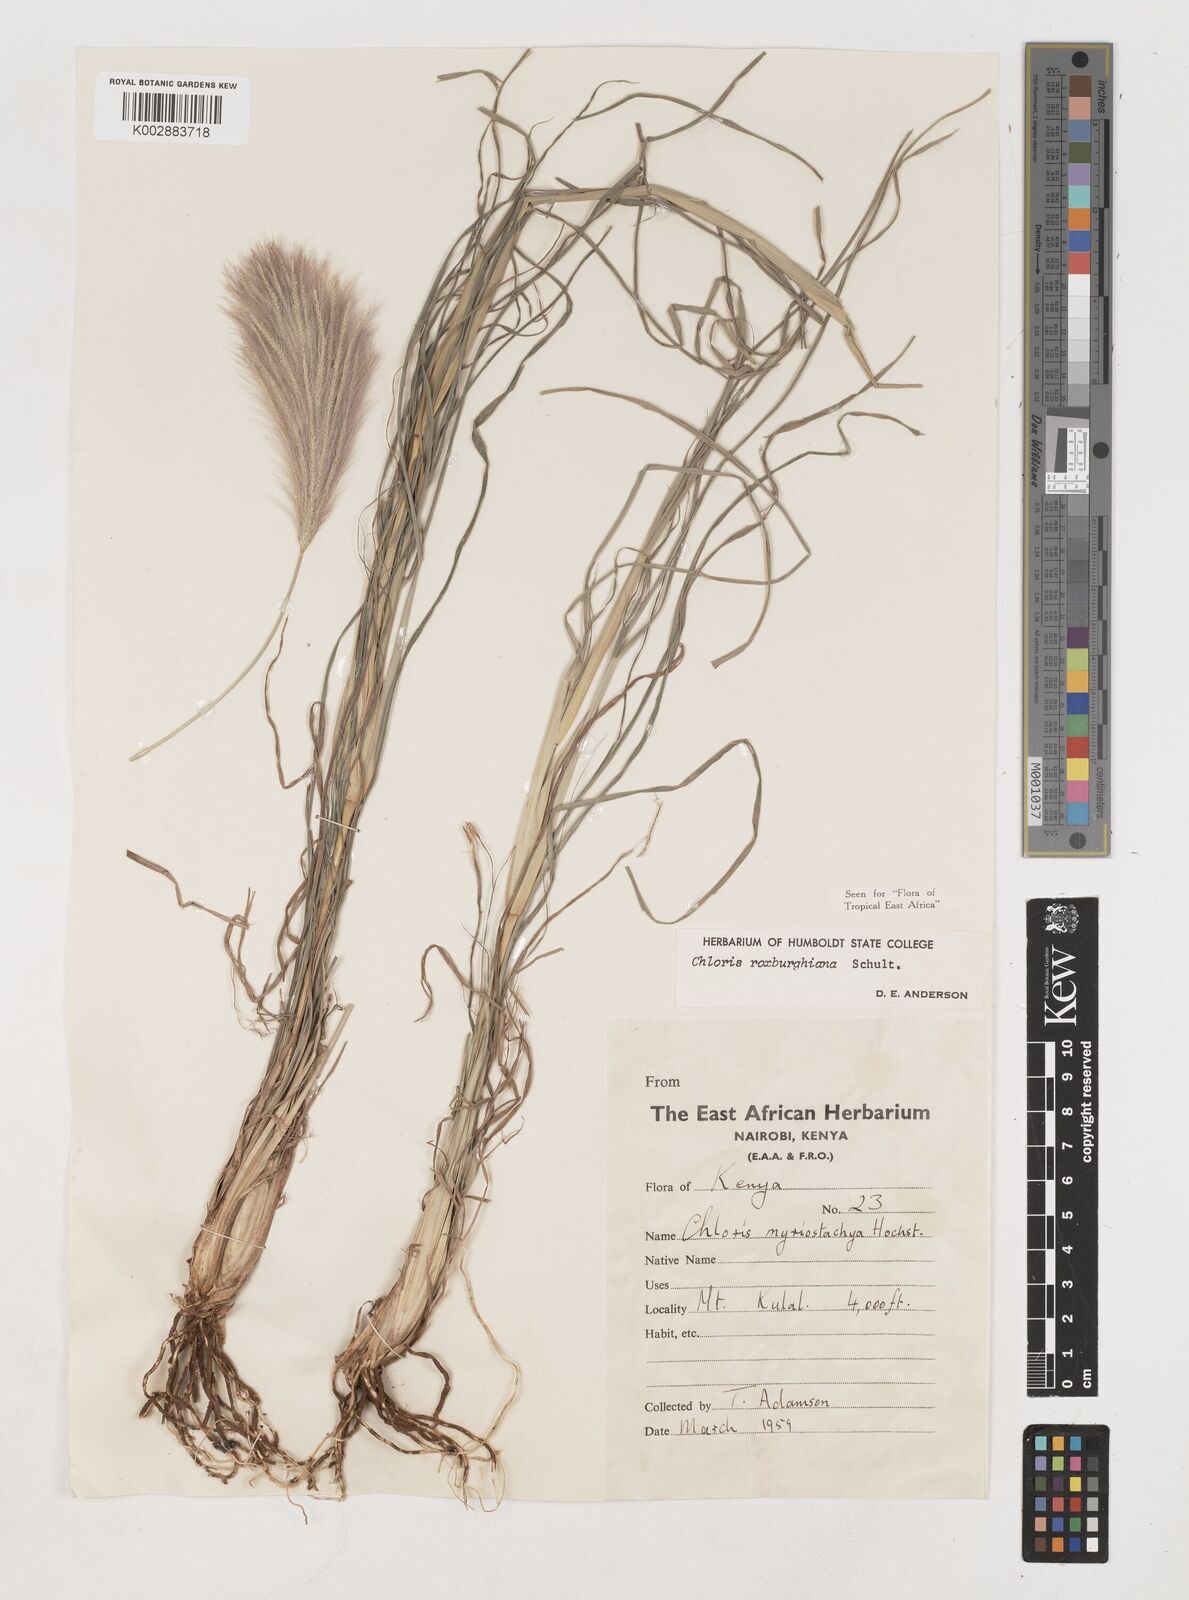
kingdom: Plantae
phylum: Tracheophyta
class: Liliopsida
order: Poales
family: Poaceae
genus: Tetrapogon
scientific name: Tetrapogon roxburghiana
